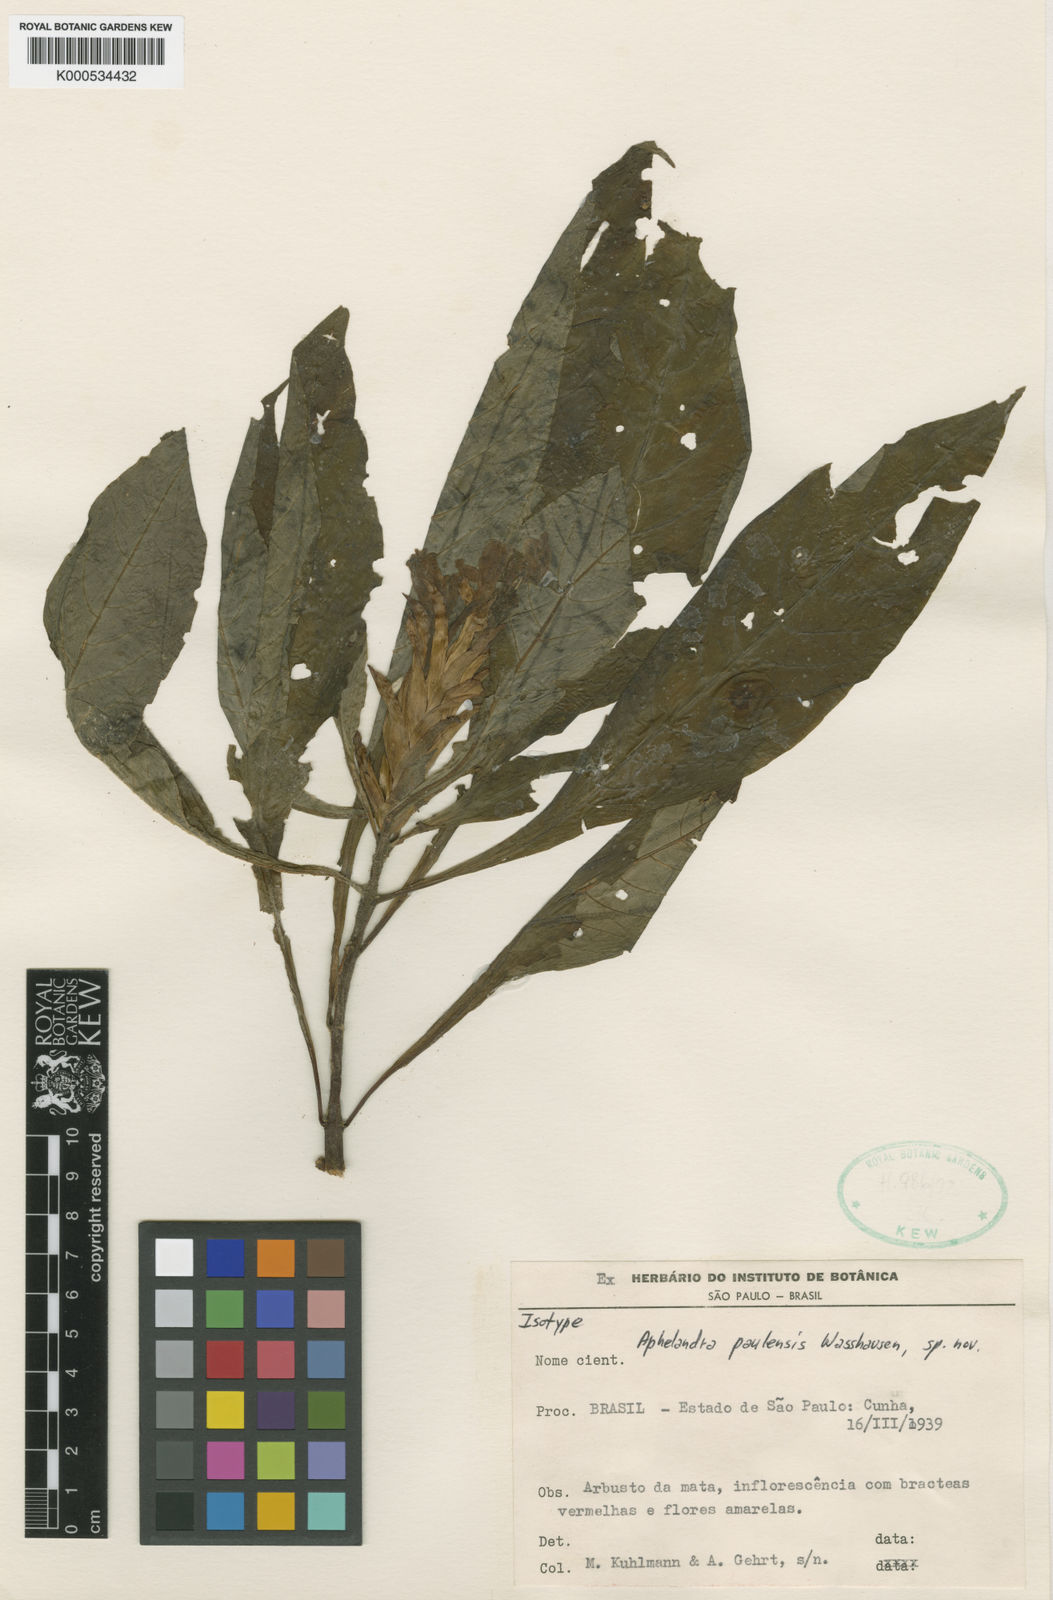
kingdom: Plantae
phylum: Tracheophyta
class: Magnoliopsida
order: Lamiales
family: Acanthaceae
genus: Aphelandra
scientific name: Aphelandra paulensis
